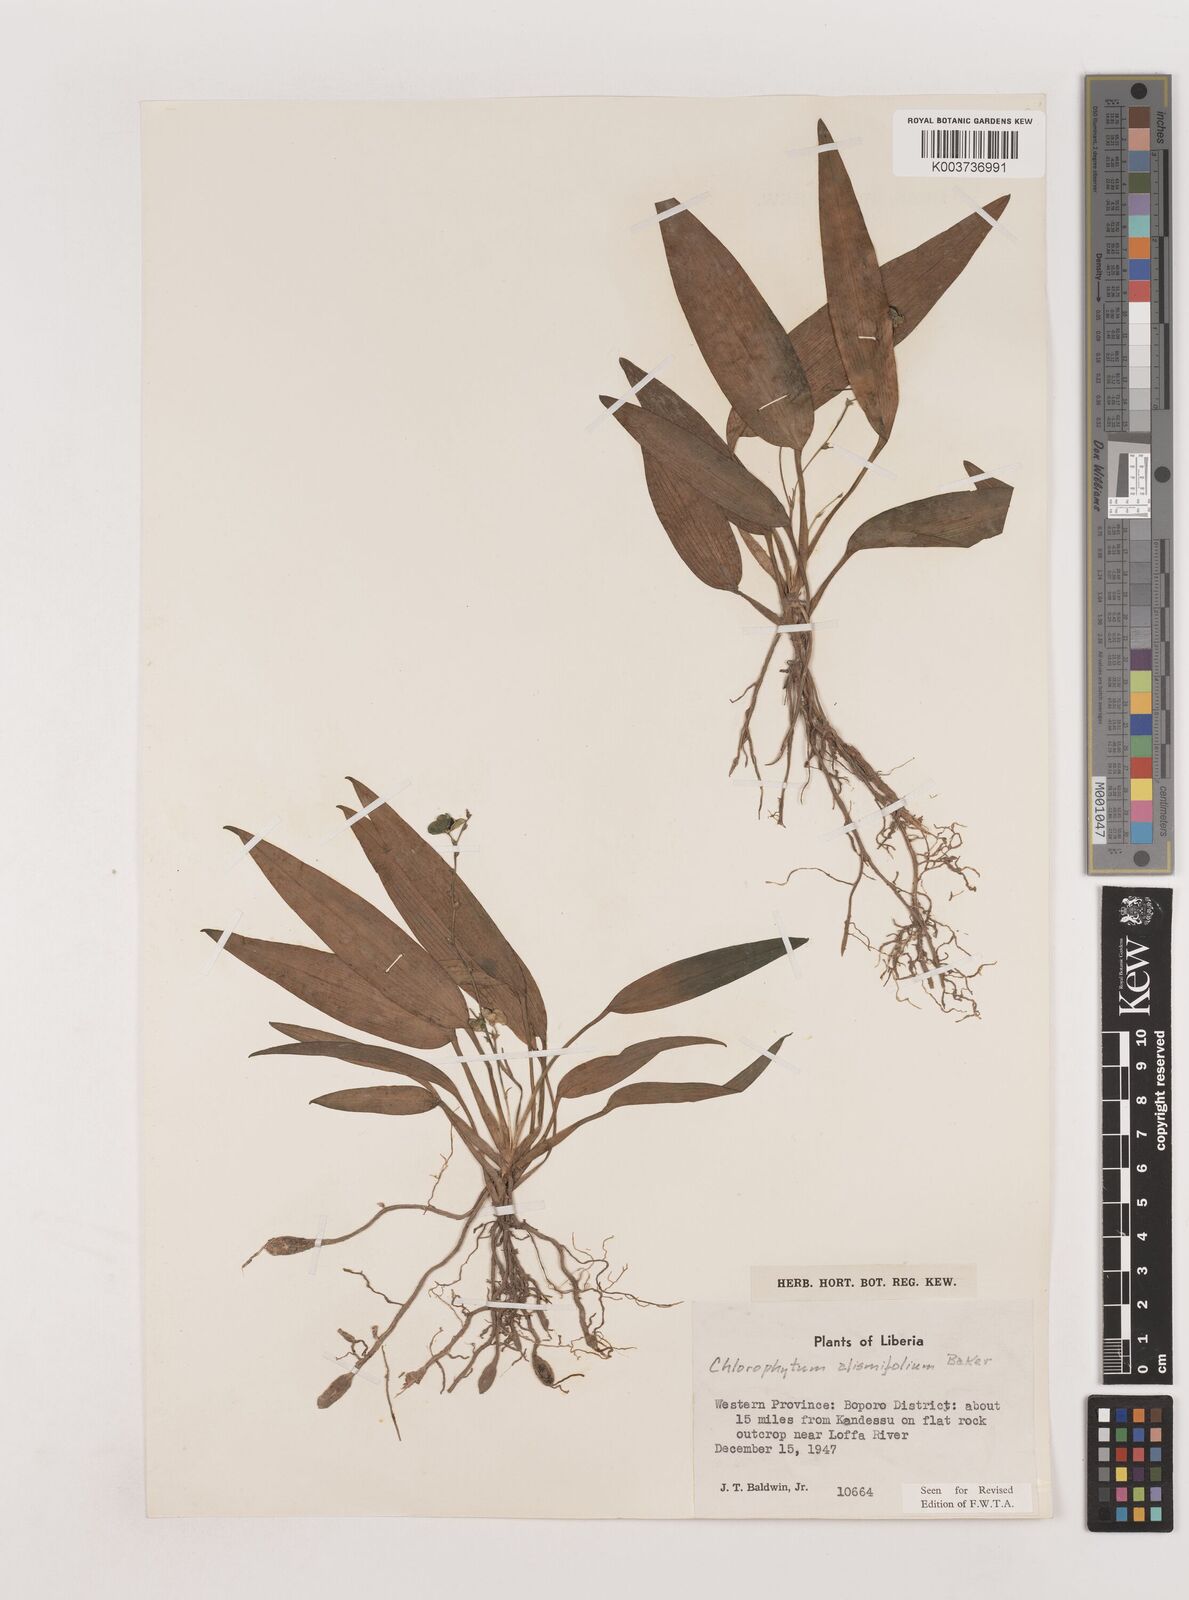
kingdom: Plantae
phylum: Tracheophyta
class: Liliopsida
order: Asparagales
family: Asparagaceae
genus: Chlorophytum
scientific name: Chlorophytum alismifolium
